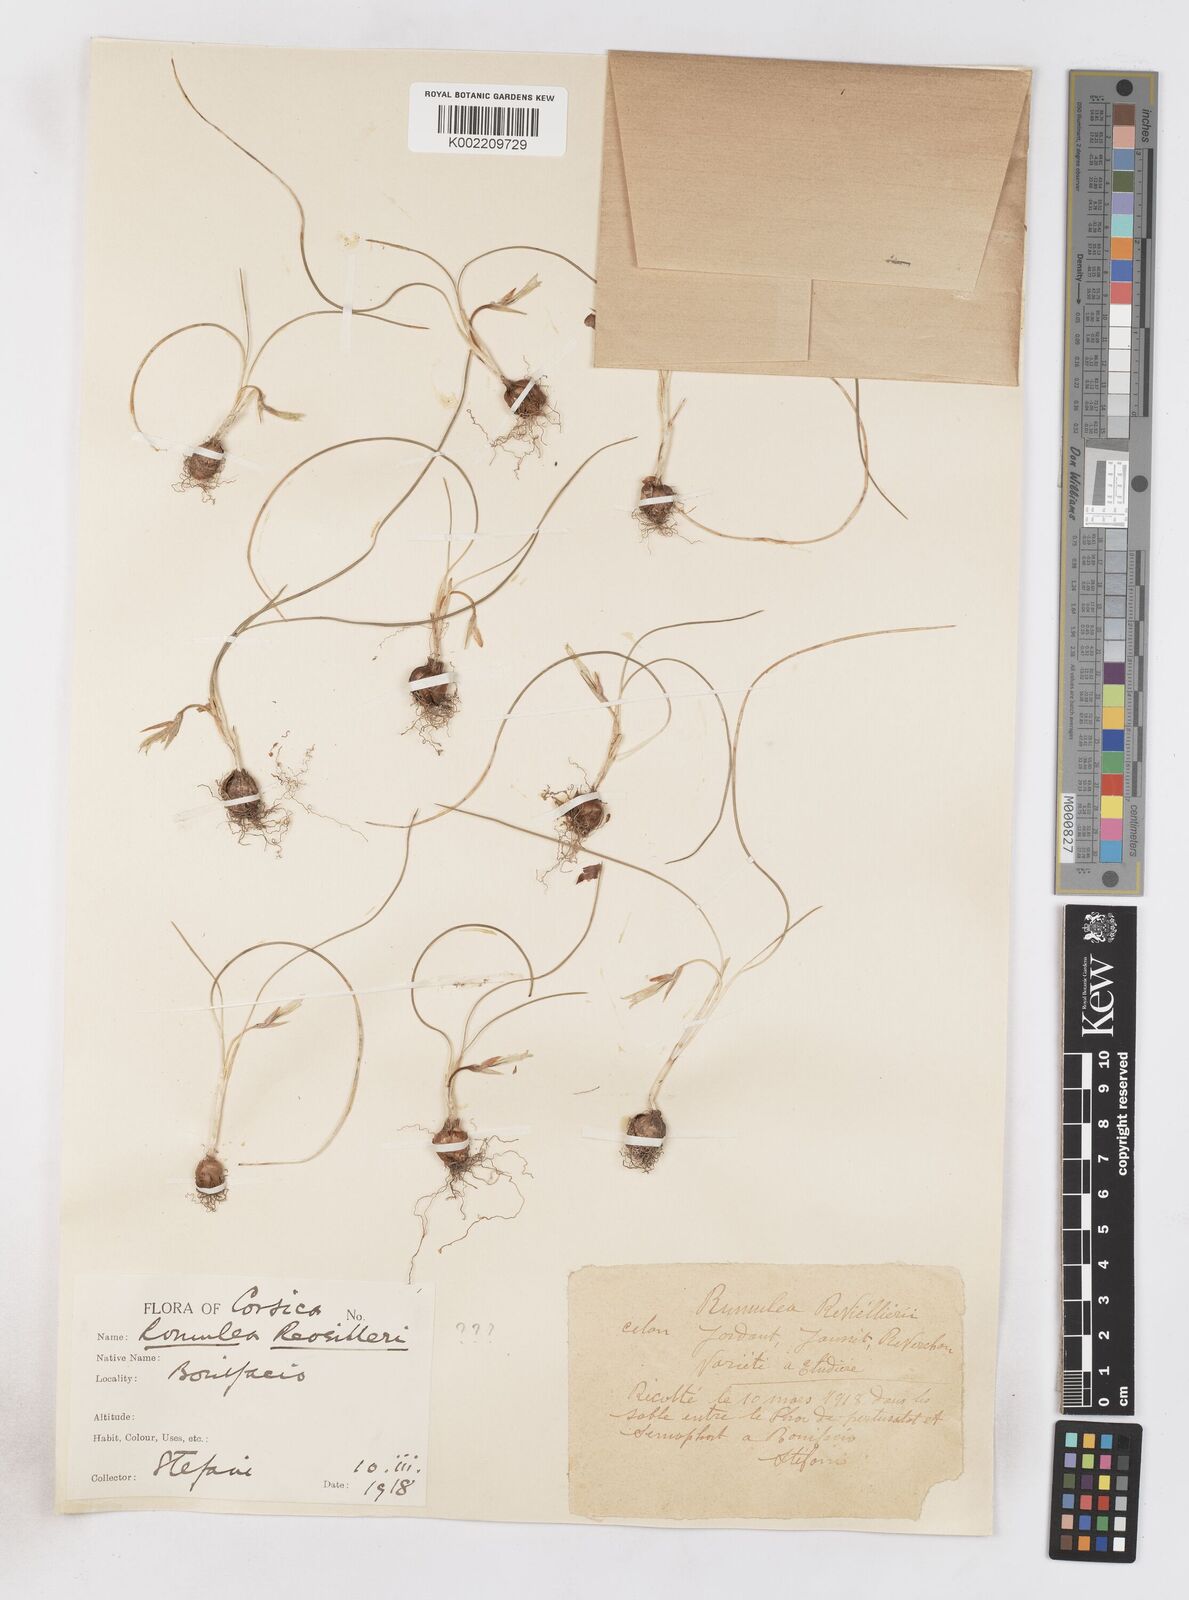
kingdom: Plantae
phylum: Tracheophyta
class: Liliopsida
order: Asparagales
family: Iridaceae
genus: Romulea
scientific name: Romulea columnae
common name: Sand-crocus
